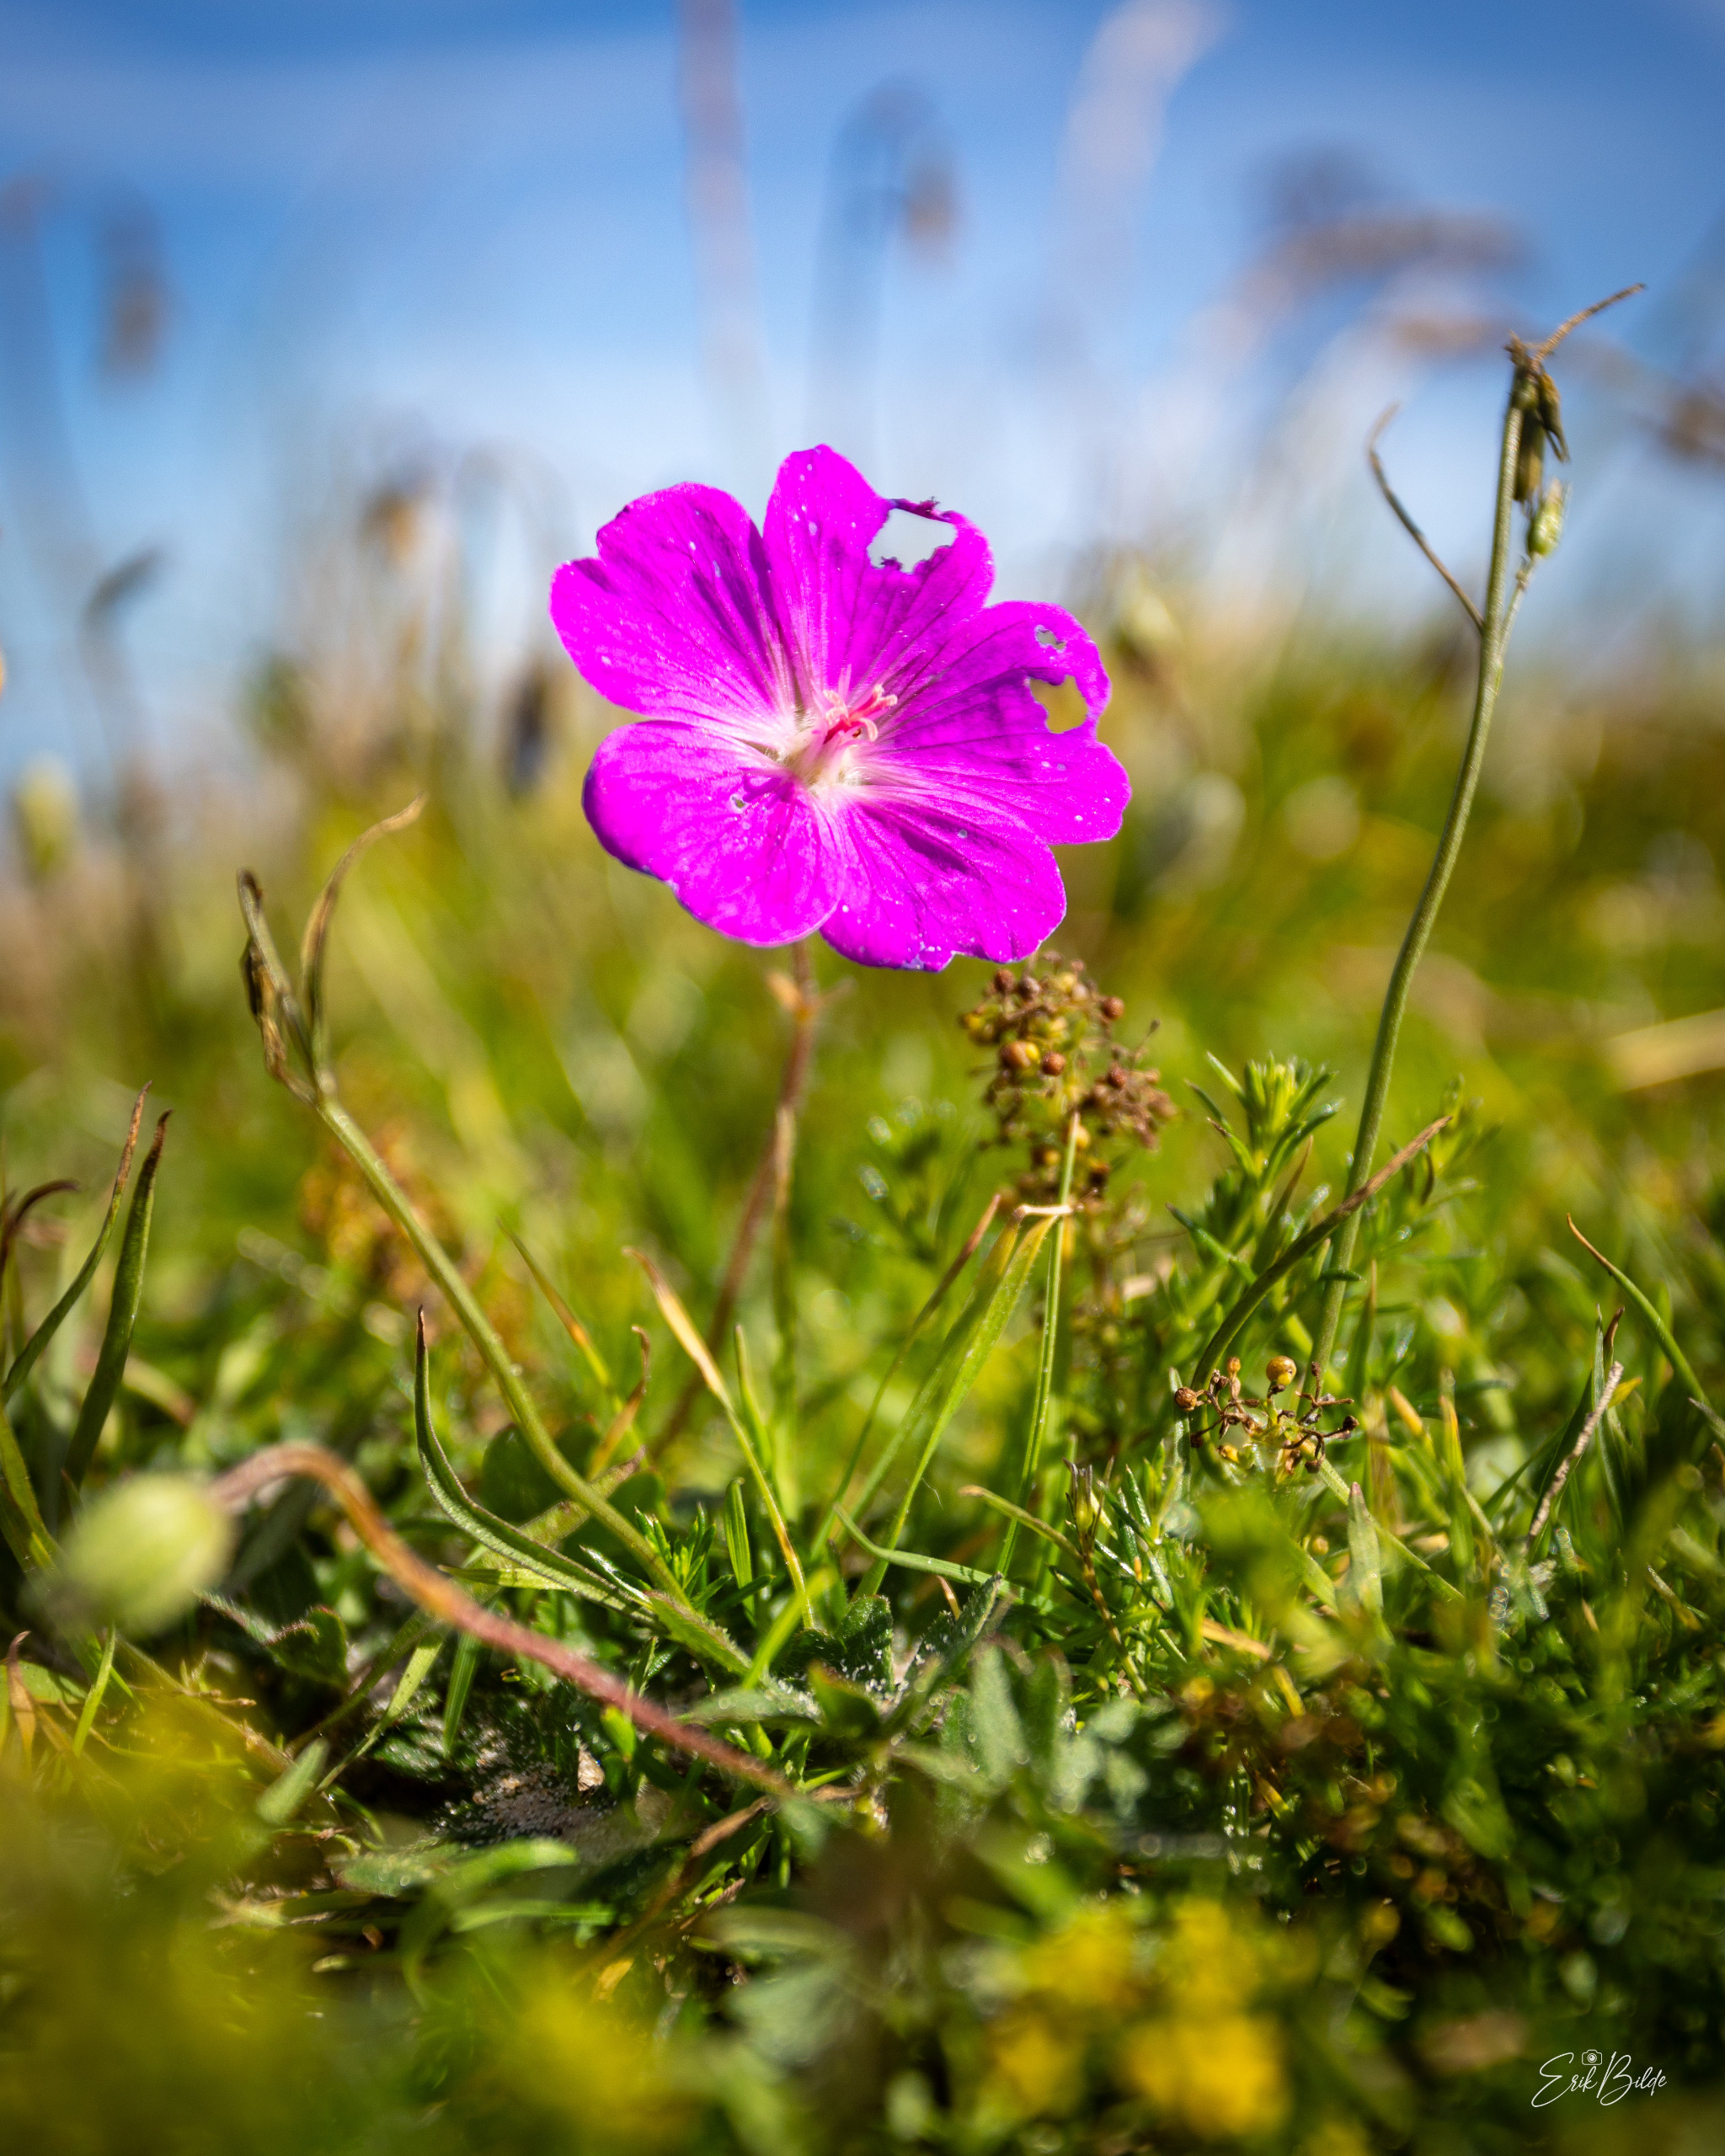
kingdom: Plantae
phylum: Tracheophyta
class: Magnoliopsida
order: Geraniales
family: Geraniaceae
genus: Geranium
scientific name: Geranium sanguineum
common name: Blodrød storkenæb
